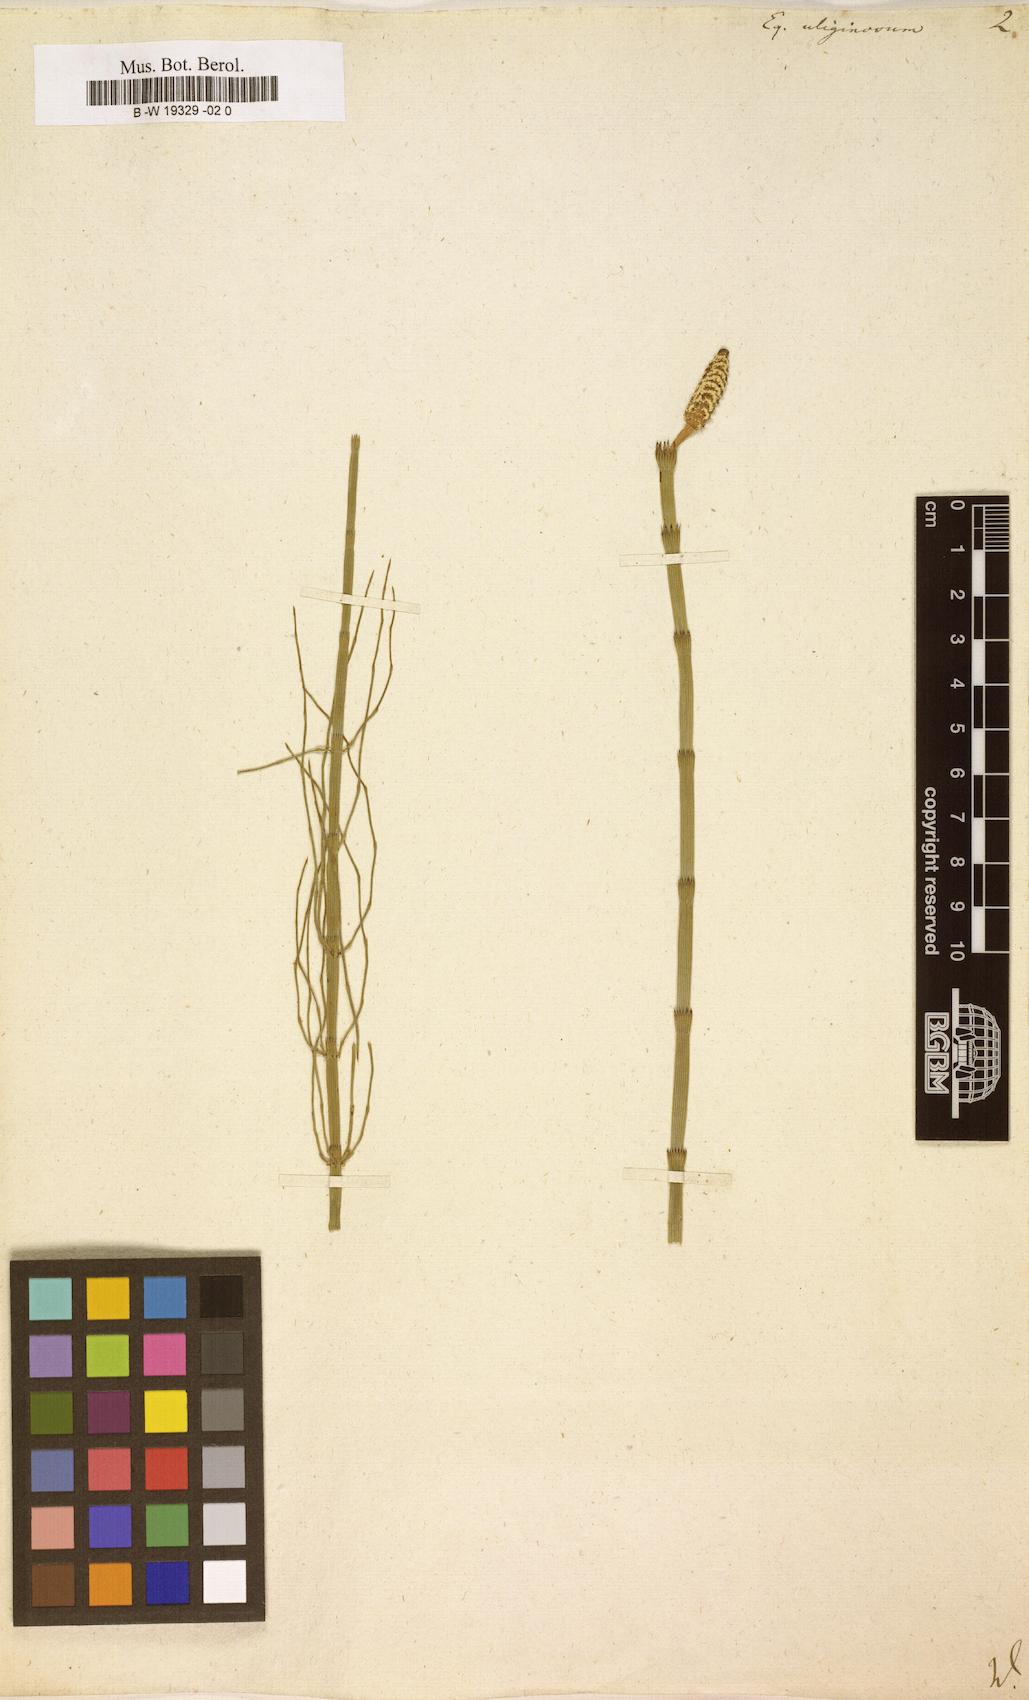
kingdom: Plantae
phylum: Tracheophyta
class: Polypodiopsida
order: Equisetales
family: Equisetaceae
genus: Equisetum
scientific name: Equisetum fluviatile
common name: Water horsetail
